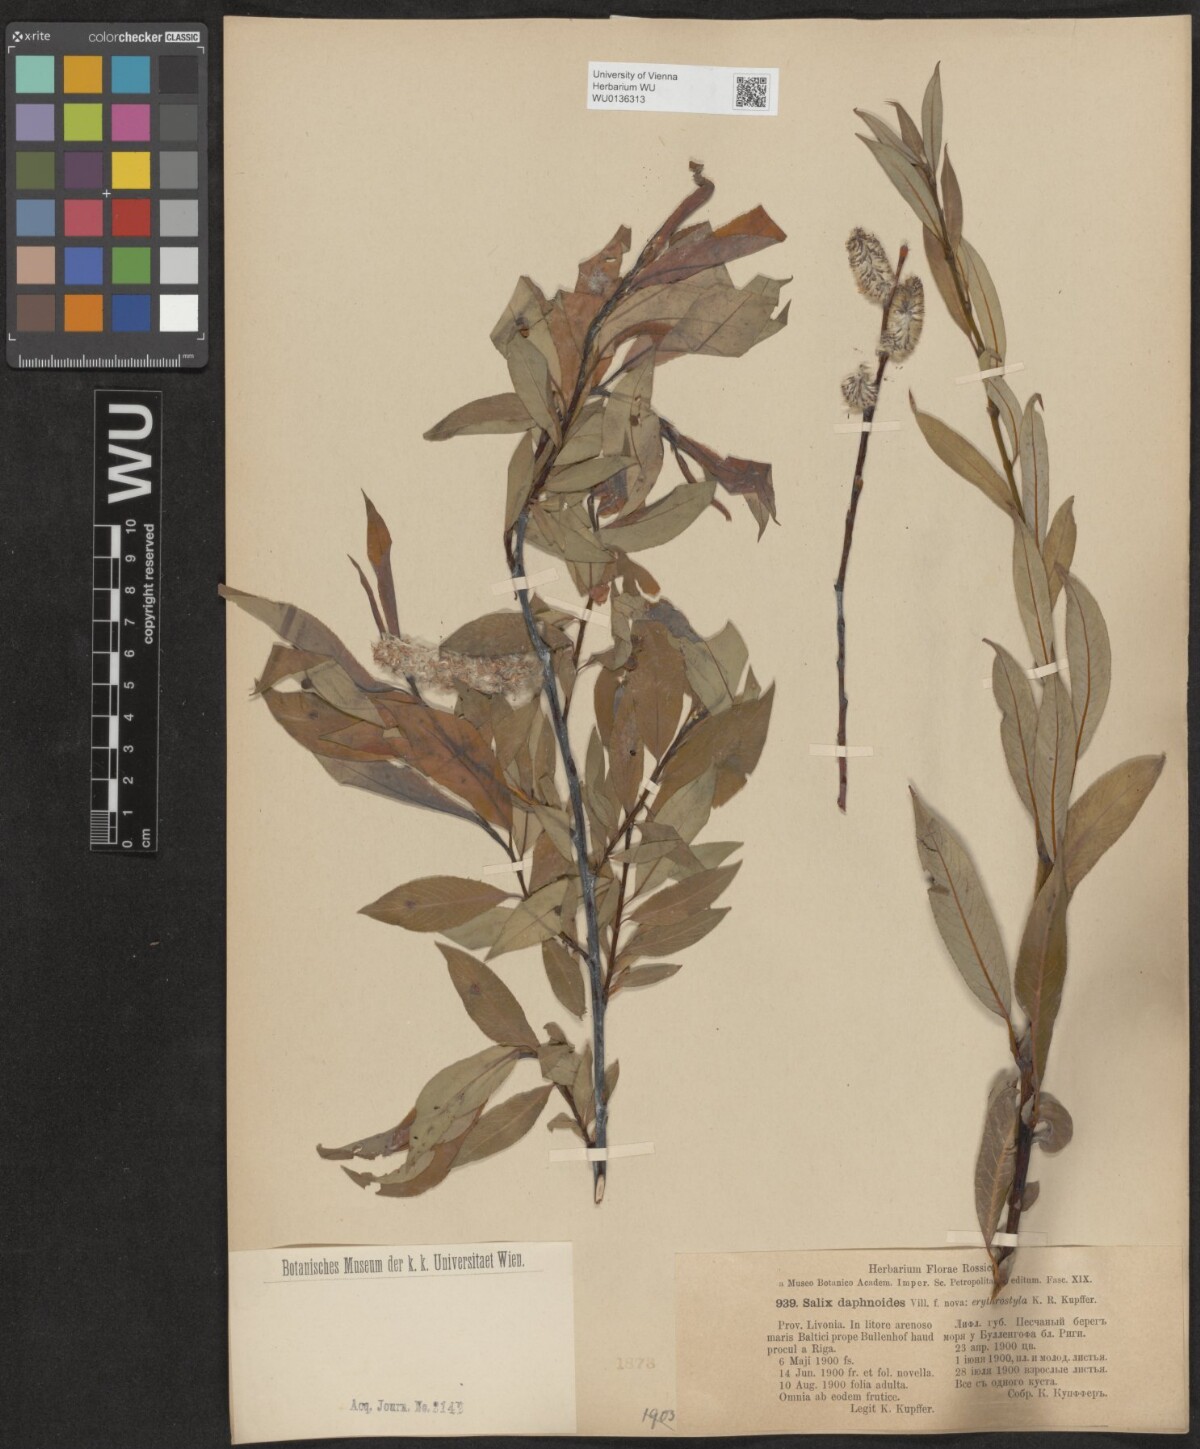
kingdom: Plantae
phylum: Tracheophyta
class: Magnoliopsida
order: Malpighiales
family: Salicaceae
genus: Salix
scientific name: Salix daphnoides
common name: European violet-willow
